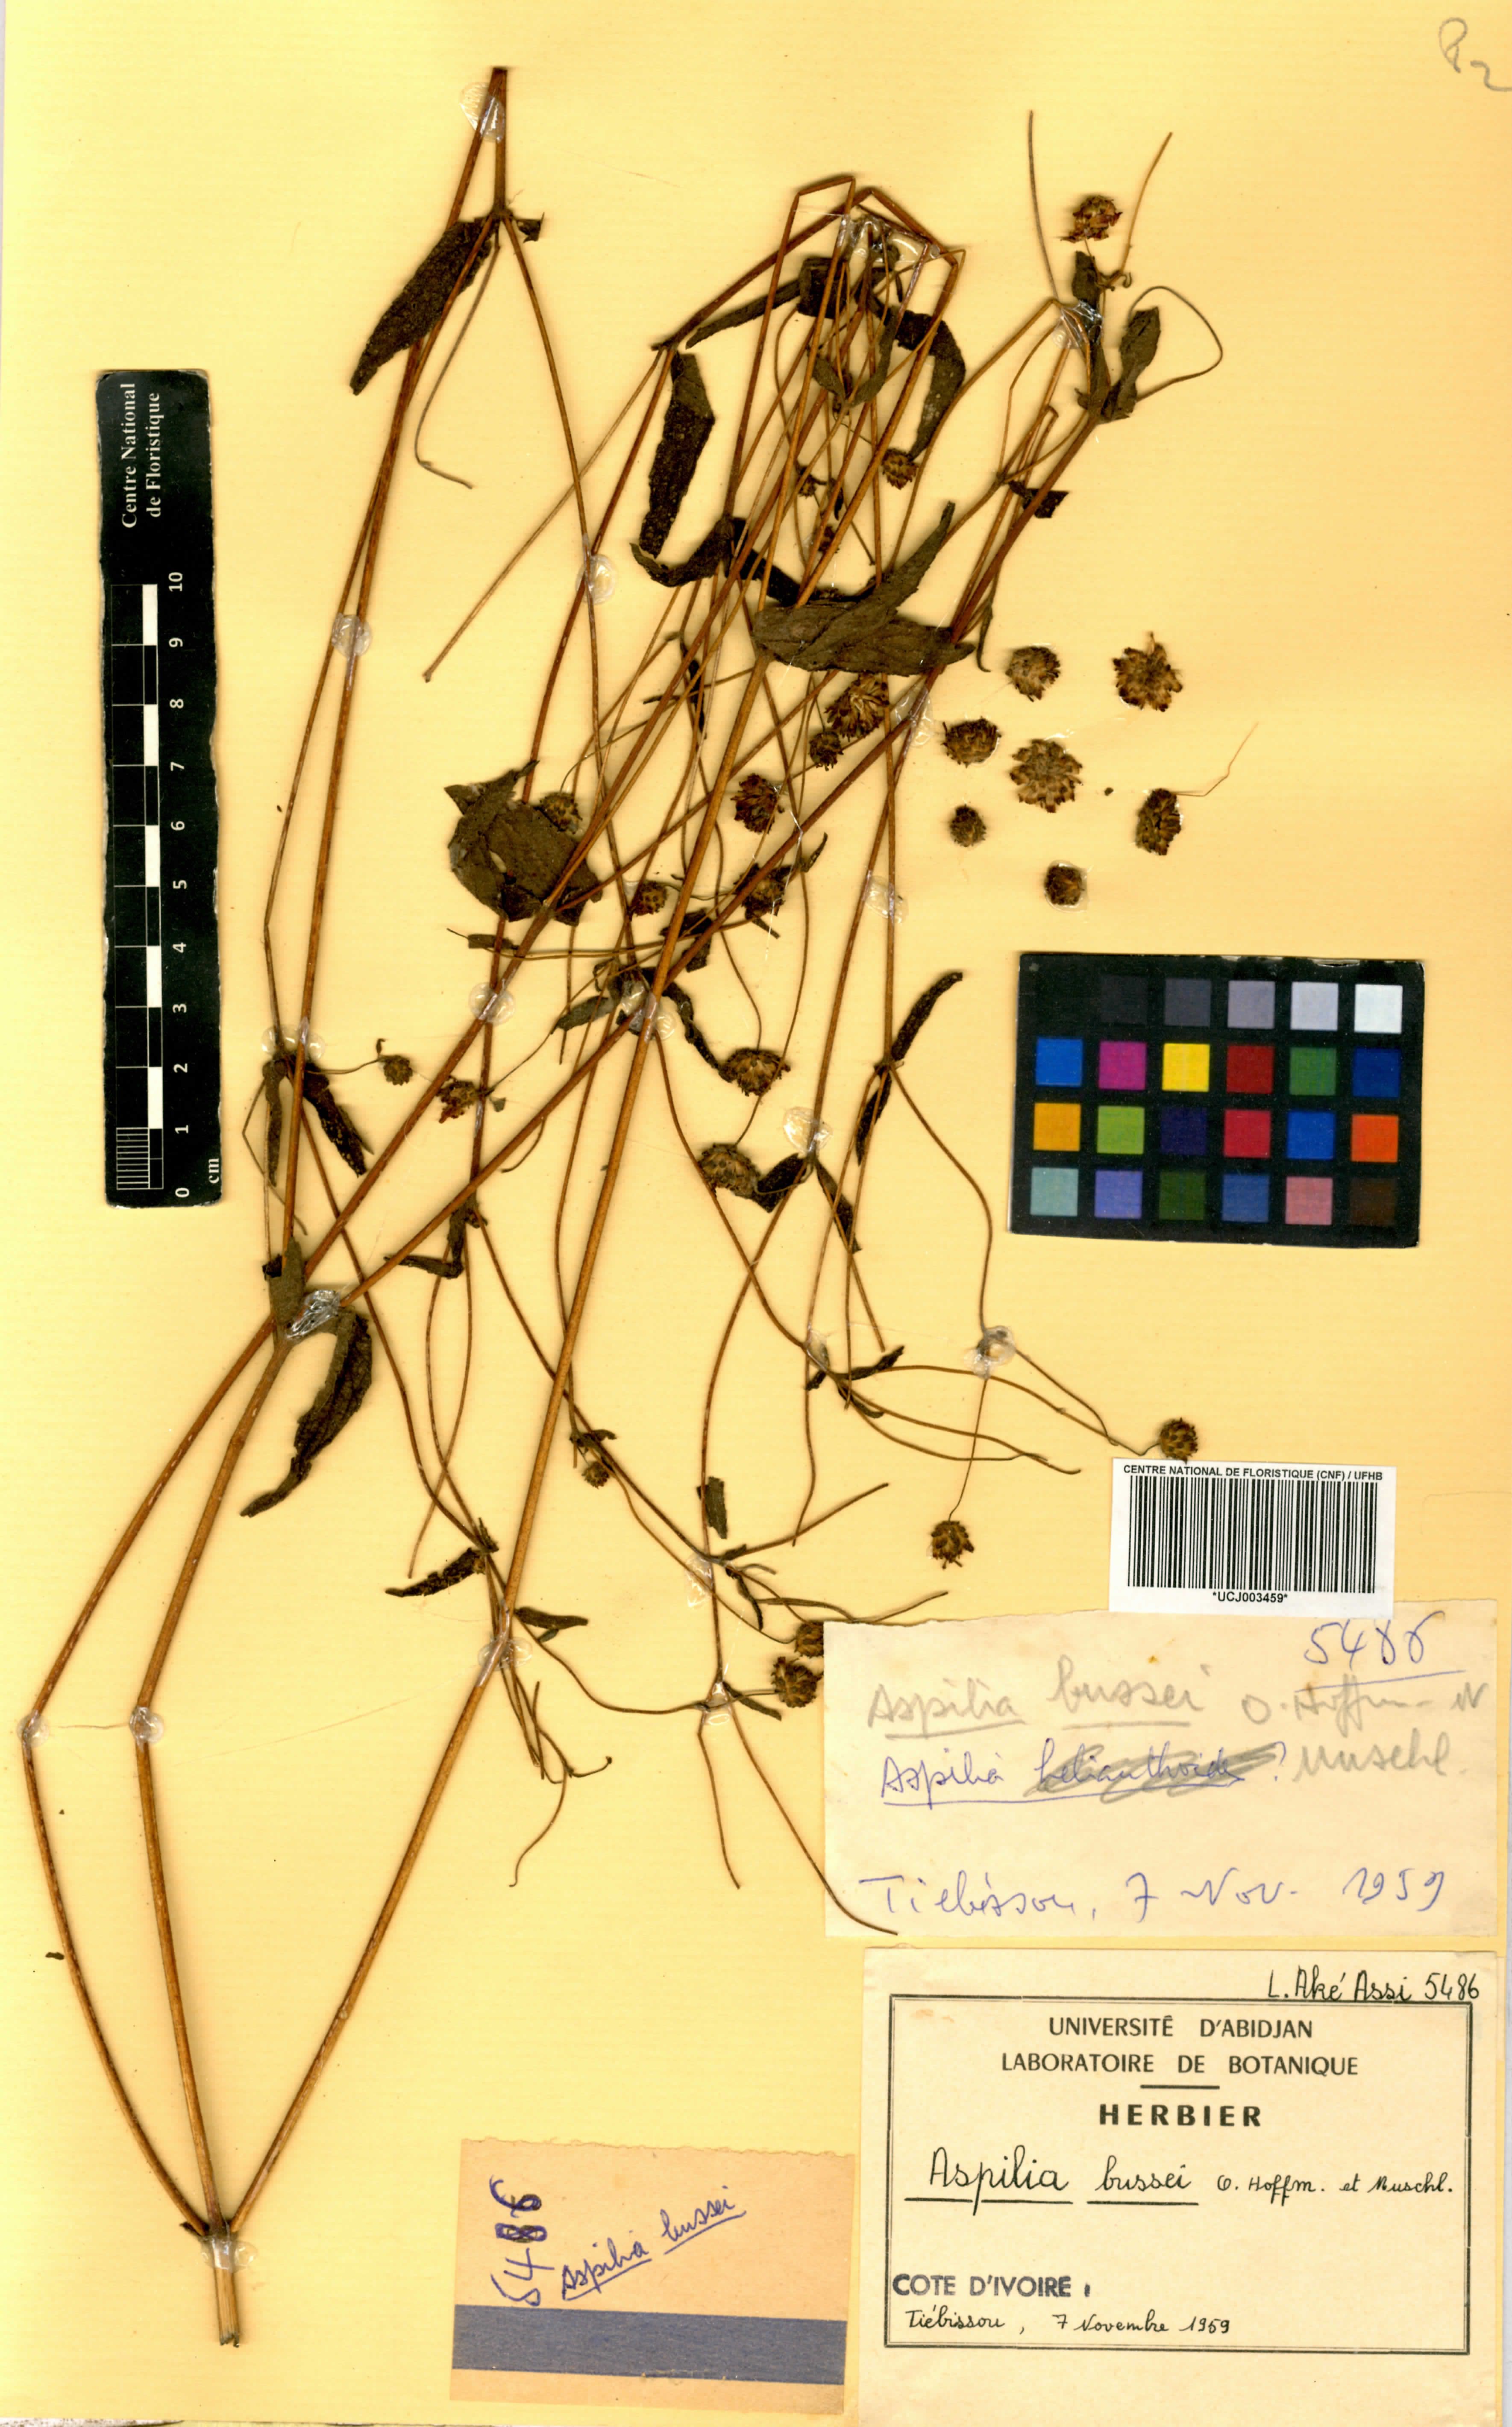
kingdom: Plantae
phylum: Tracheophyta
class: Magnoliopsida
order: Asterales
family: Asteraceae
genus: Aspilia
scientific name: Aspilia bussei
